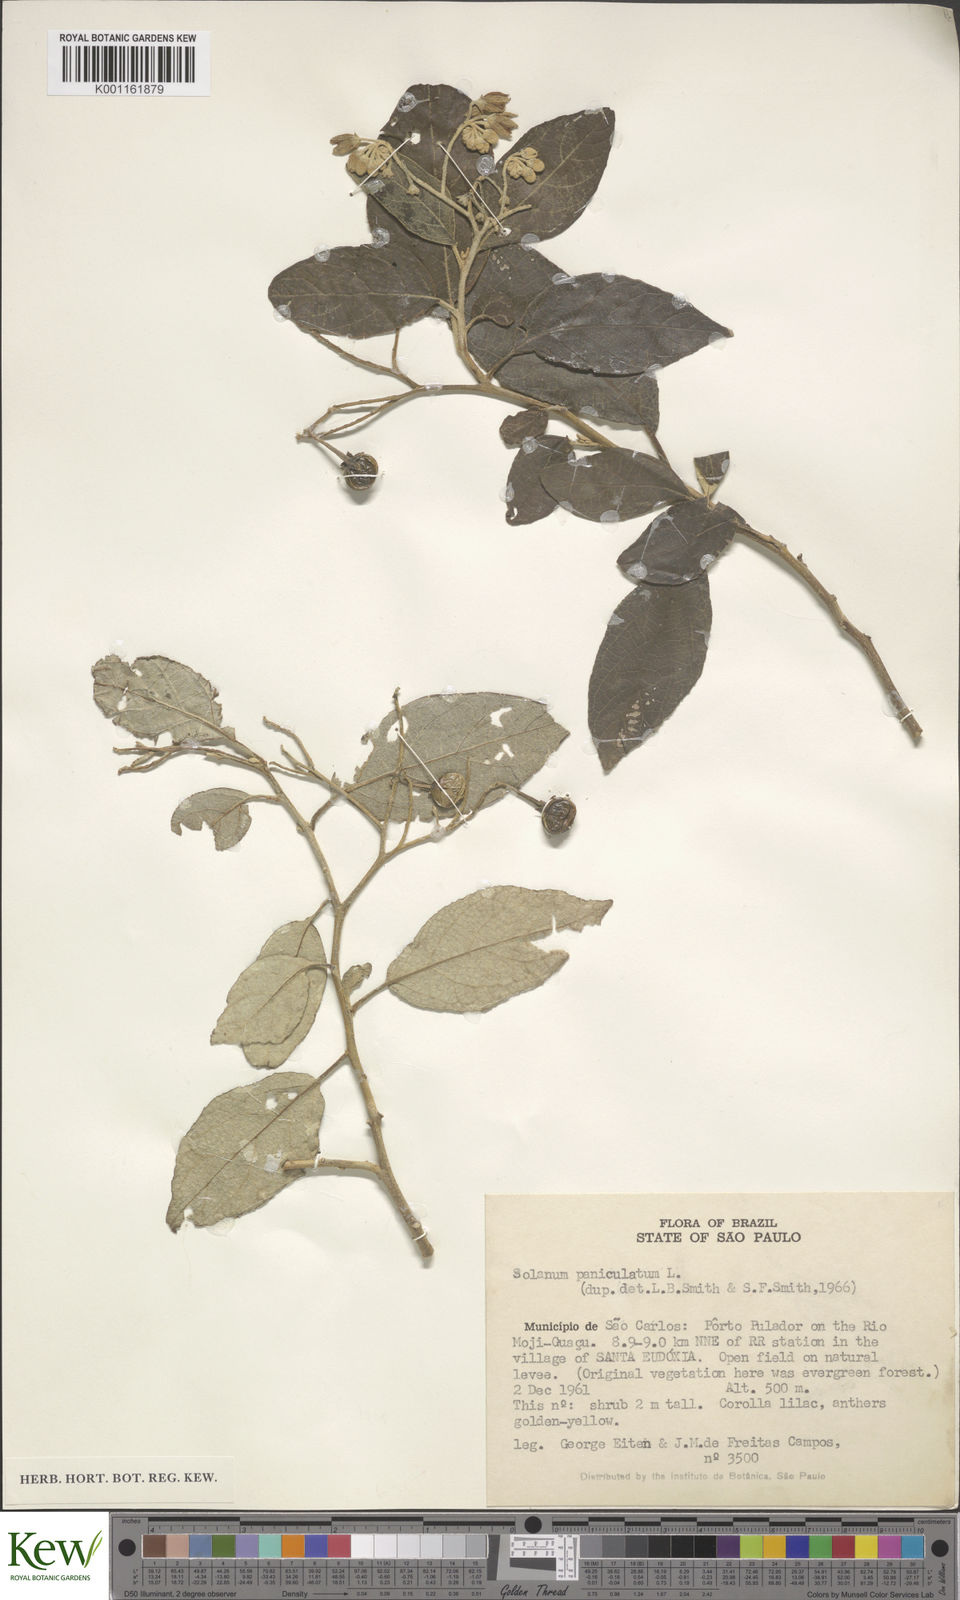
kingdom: Plantae
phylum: Tracheophyta
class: Magnoliopsida
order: Solanales
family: Solanaceae
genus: Solanum
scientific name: Solanum paniculatum
